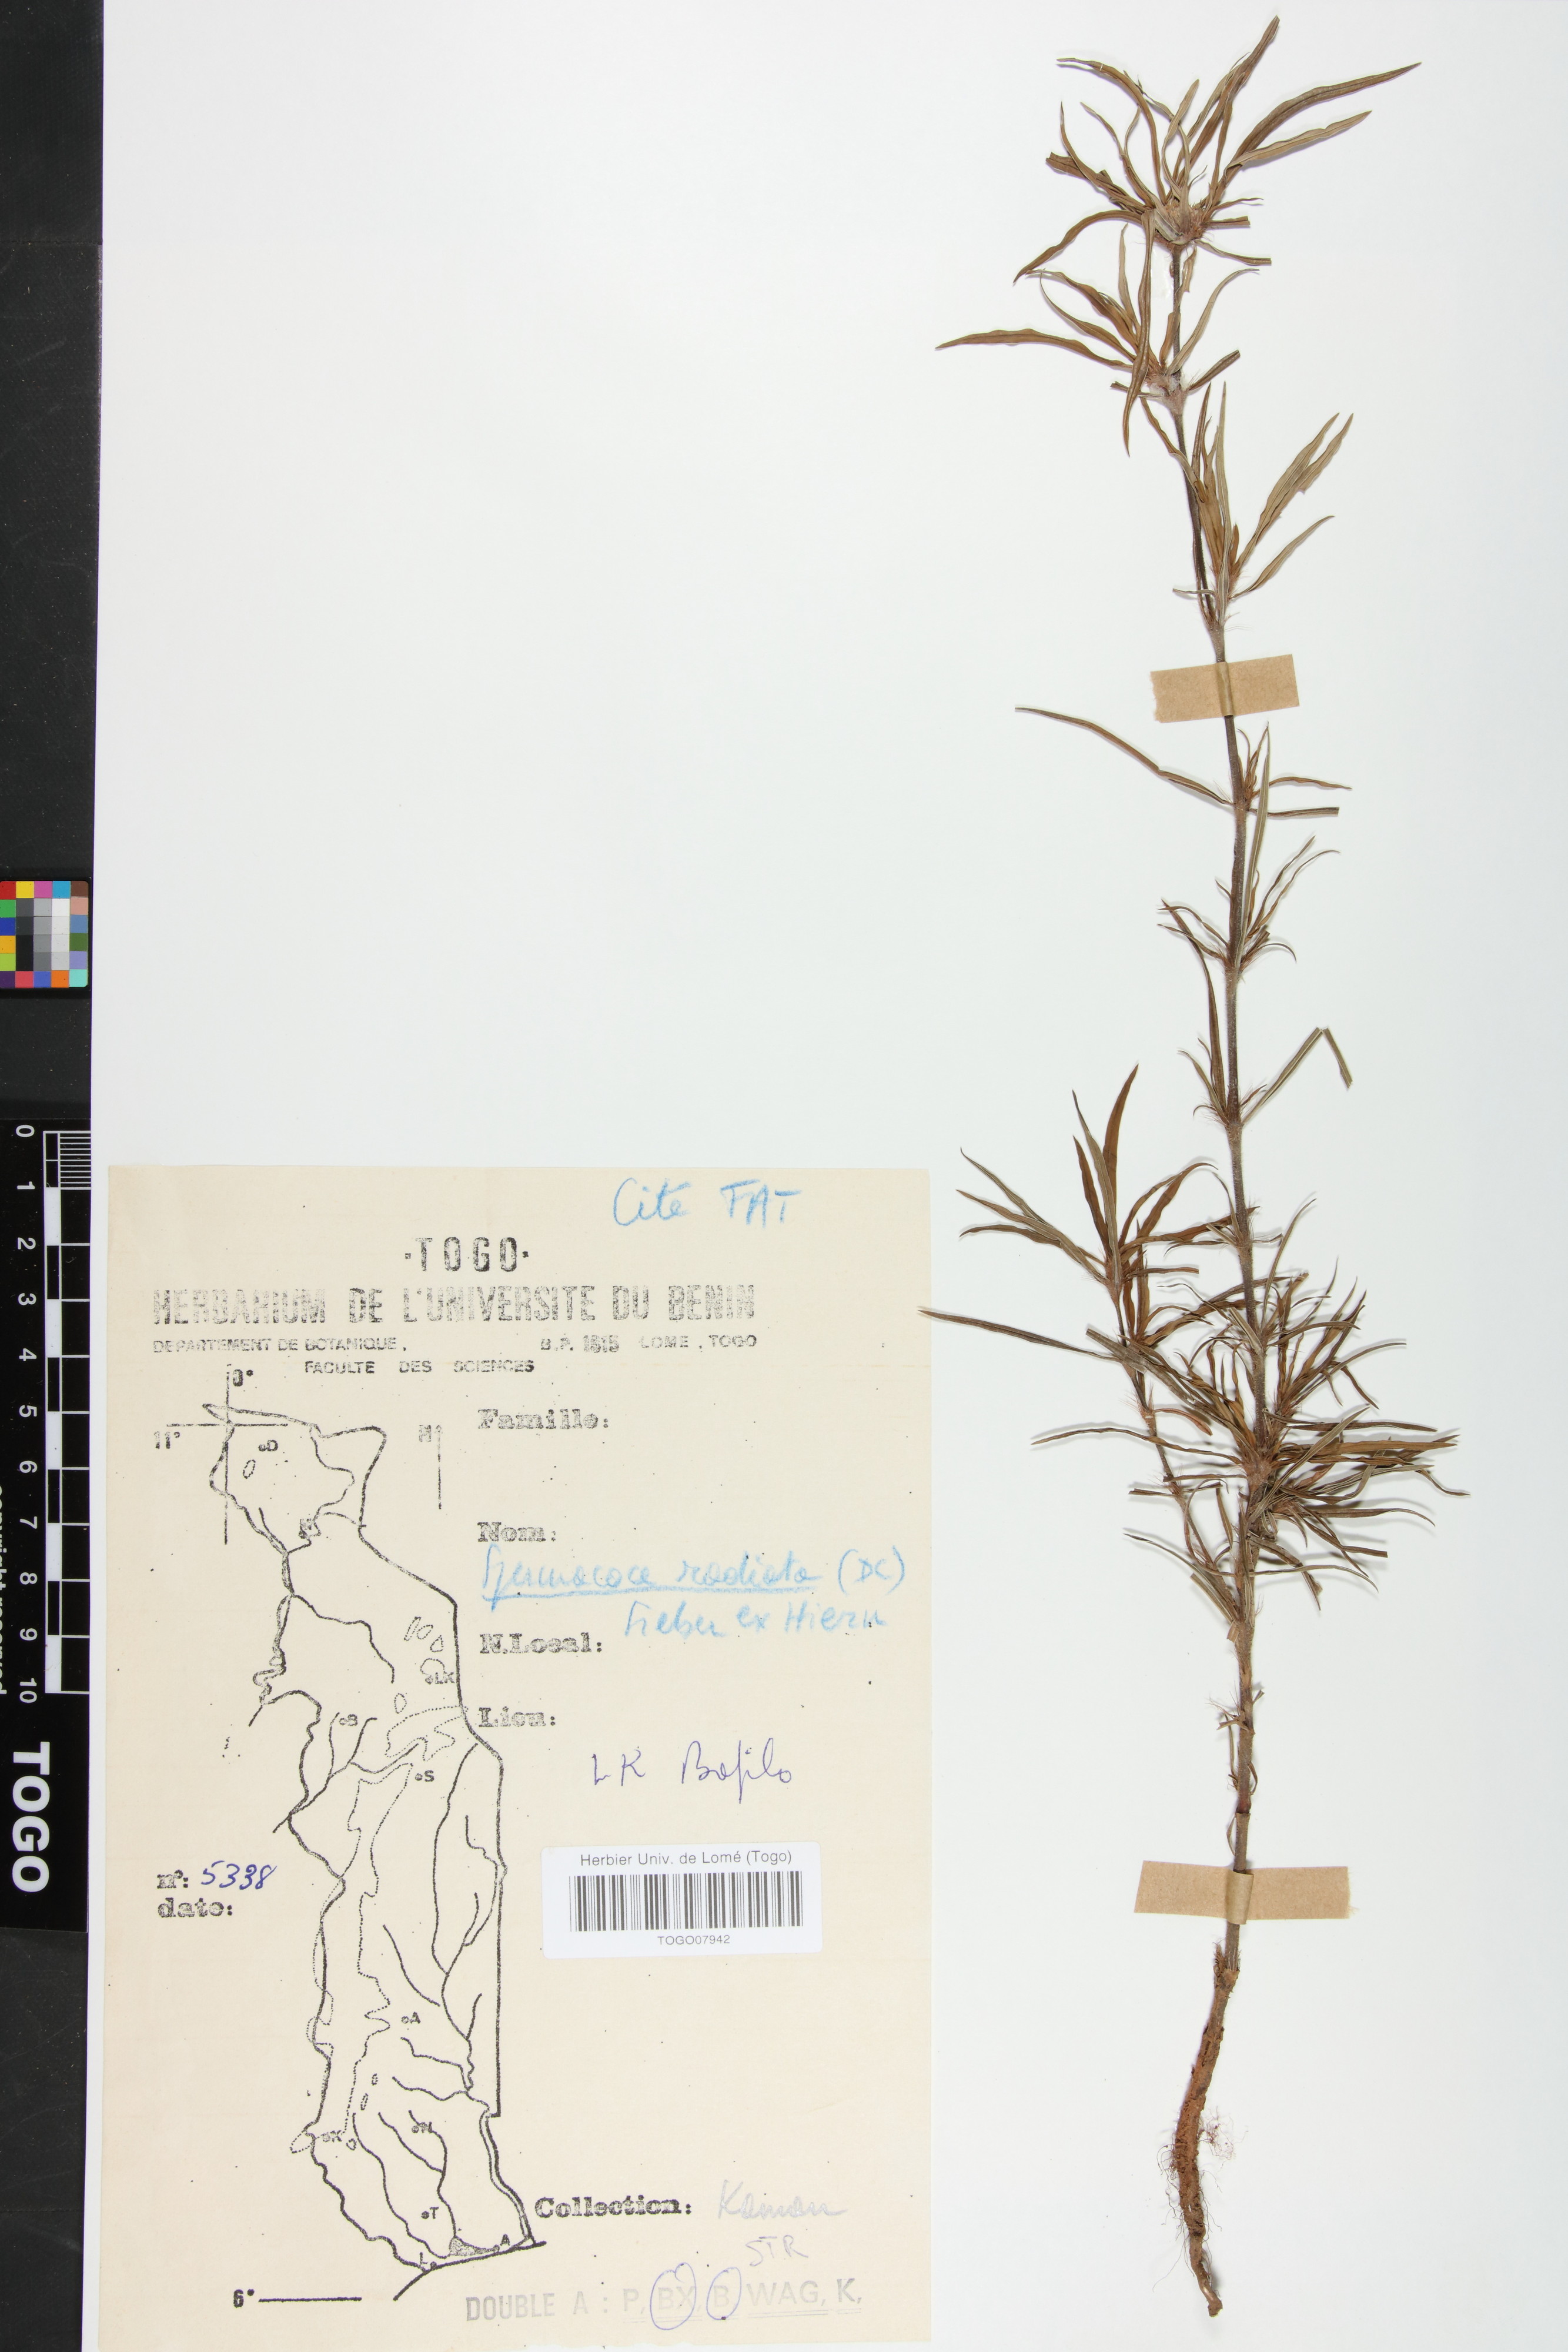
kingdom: Plantae
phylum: Tracheophyta
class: Magnoliopsida
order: Gentianales
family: Rubiaceae
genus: Spermacoce
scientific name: Spermacoce radiata
